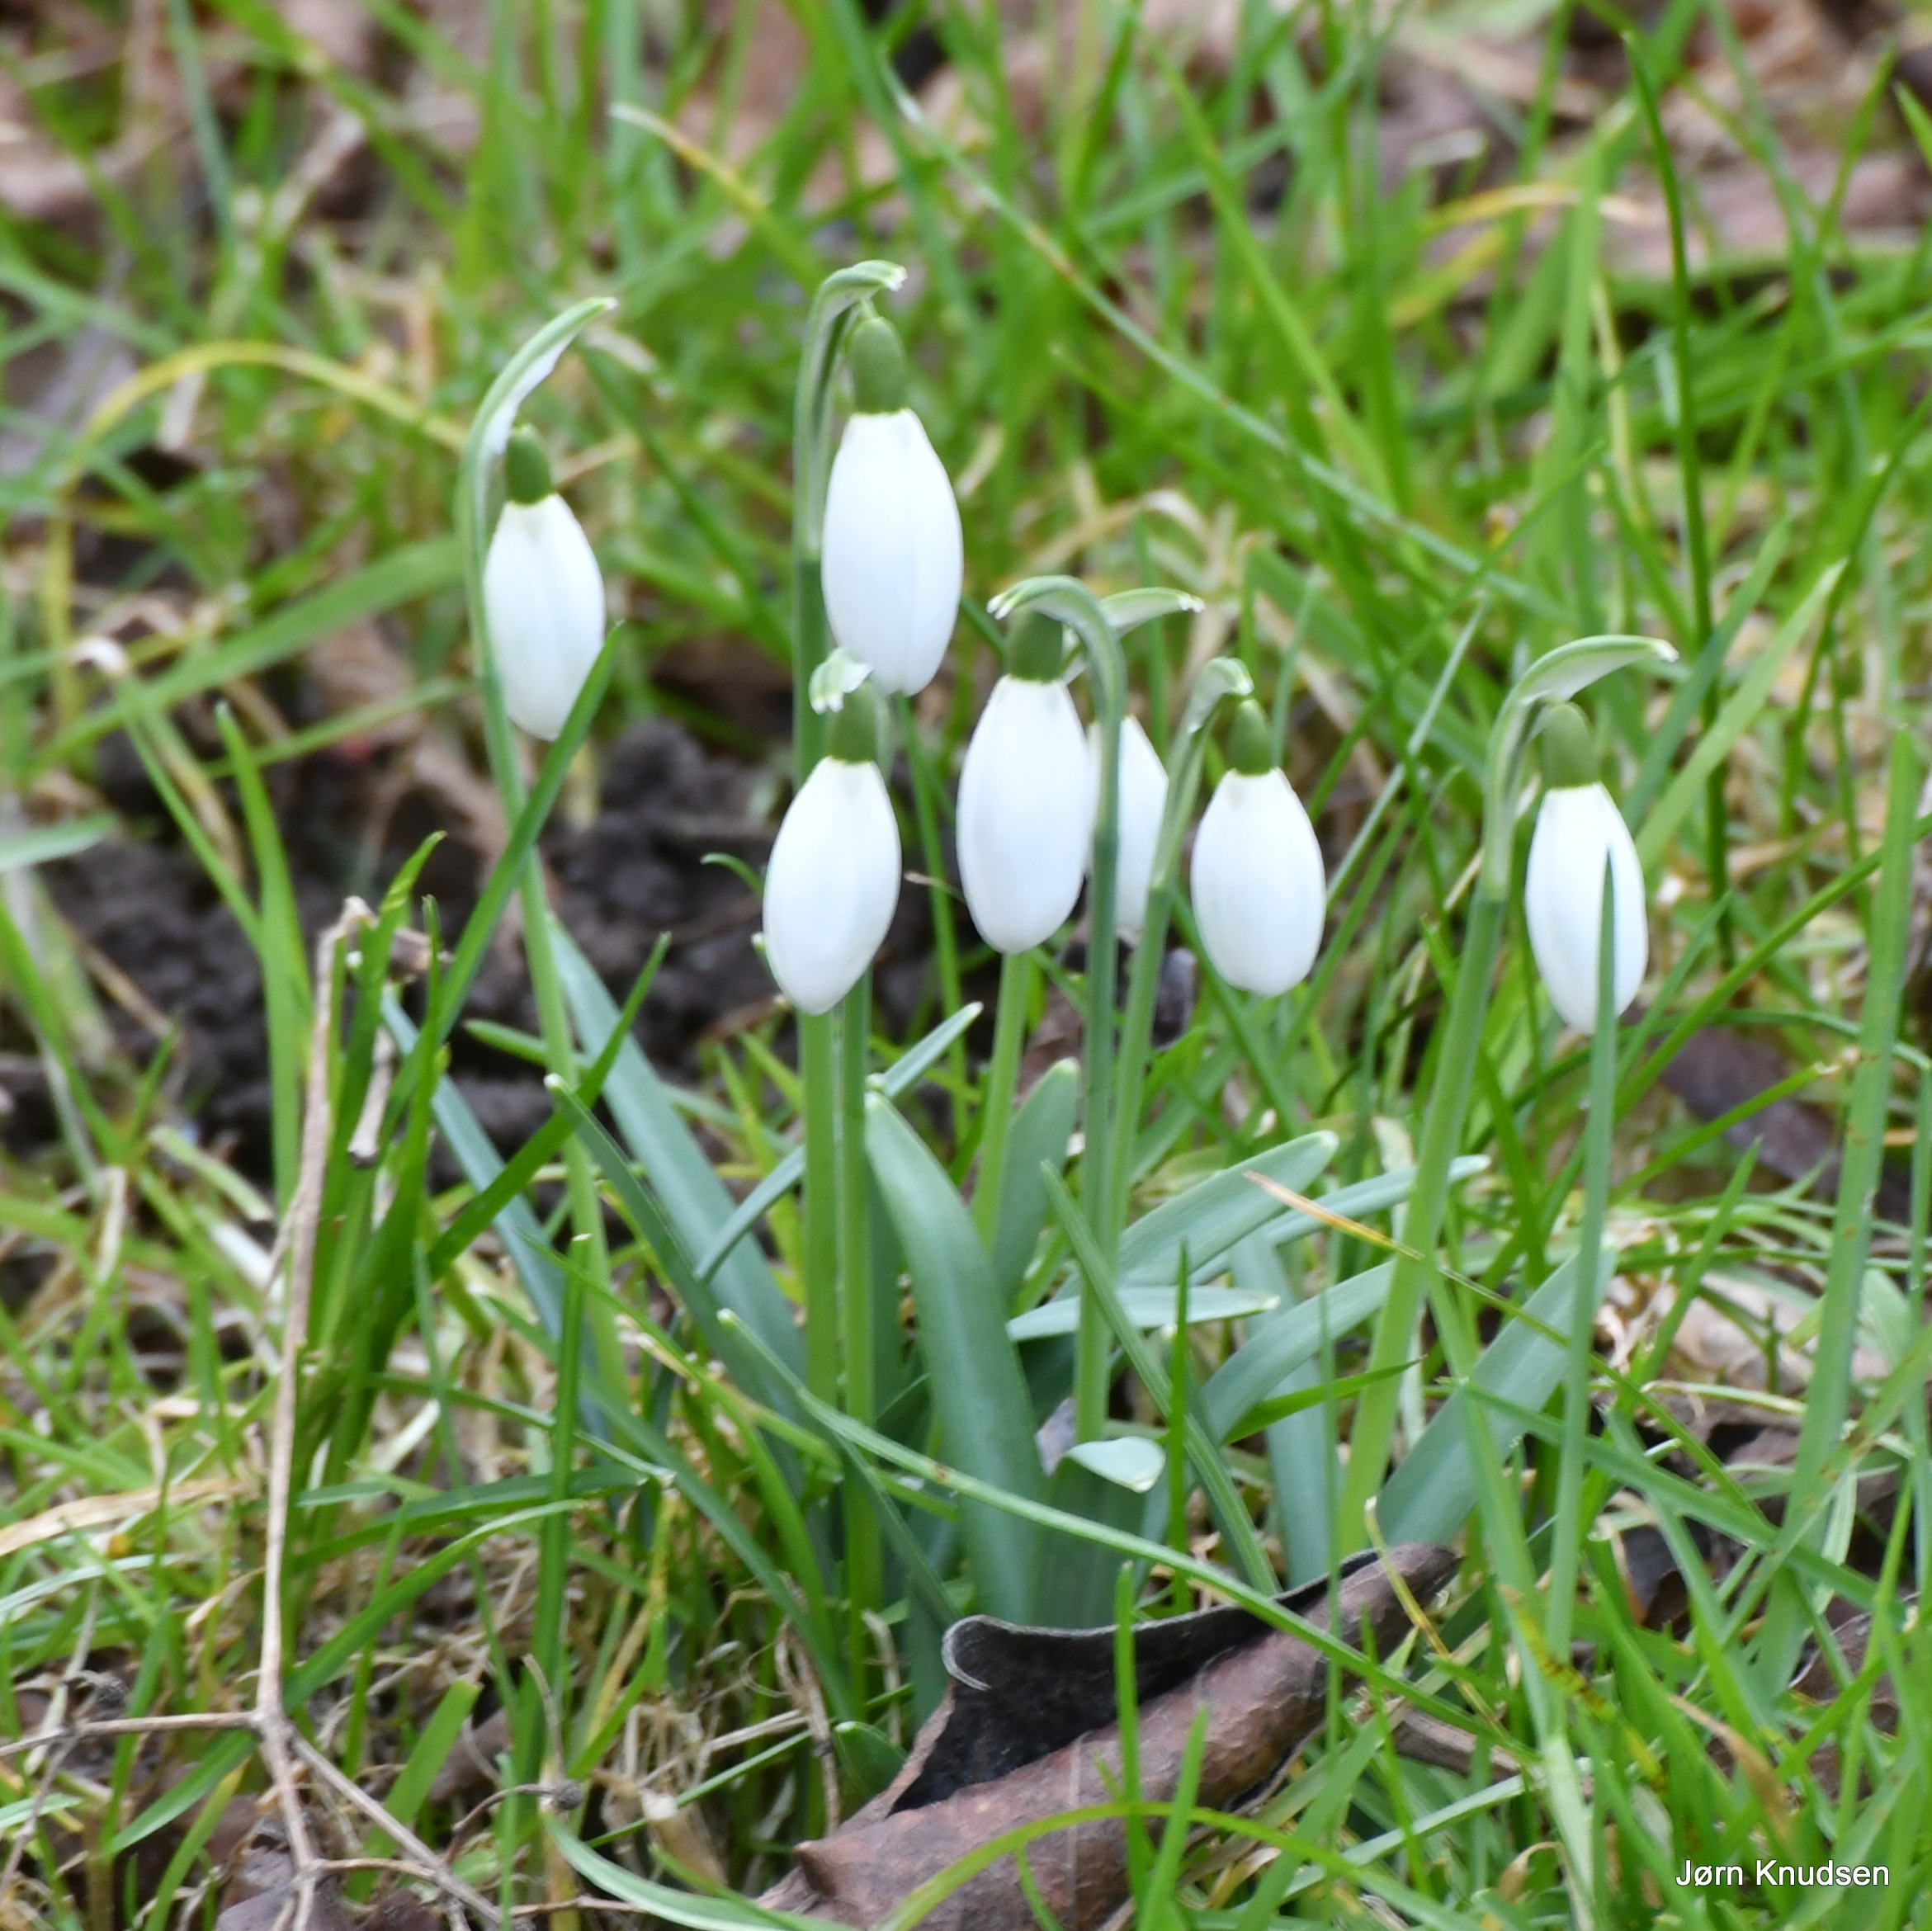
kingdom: Plantae
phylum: Tracheophyta
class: Liliopsida
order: Asparagales
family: Amaryllidaceae
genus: Galanthus
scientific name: Galanthus nivalis
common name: Vintergæk
